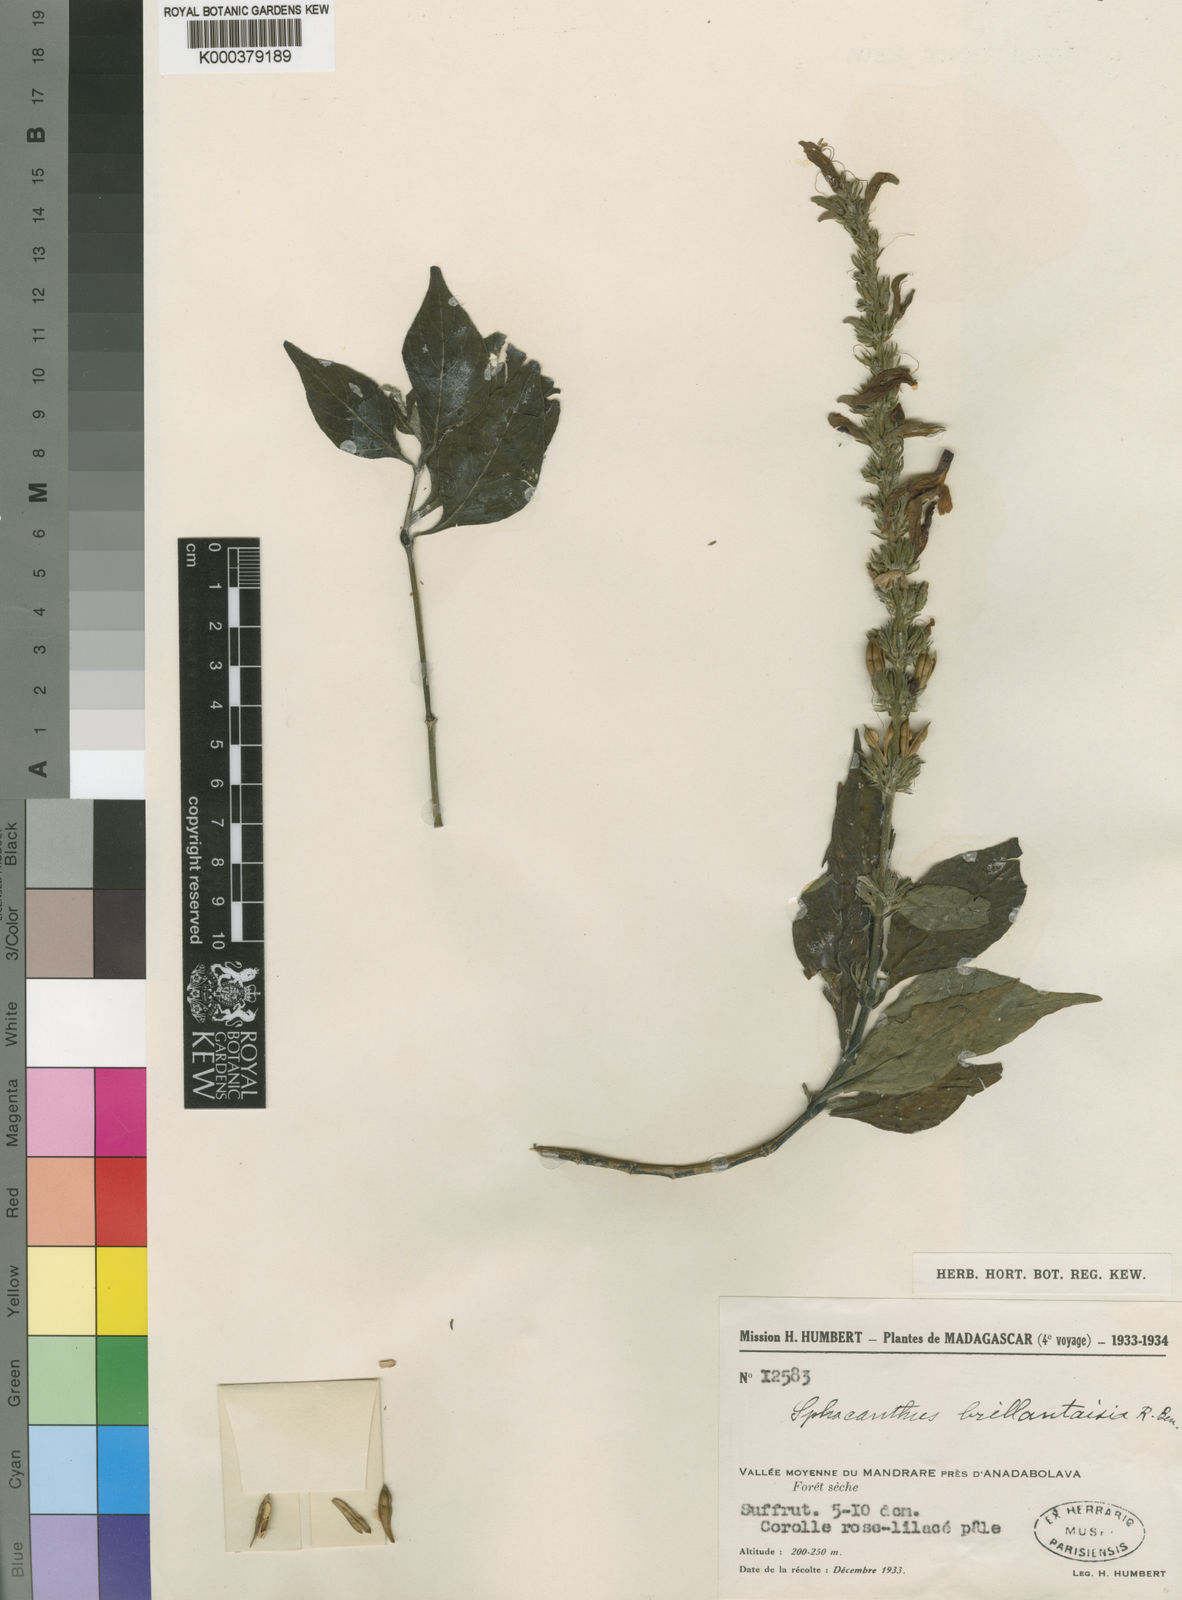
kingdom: Plantae
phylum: Tracheophyta
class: Magnoliopsida
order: Lamiales
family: Acanthaceae
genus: Isoglossa
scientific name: Isoglossa laxa
